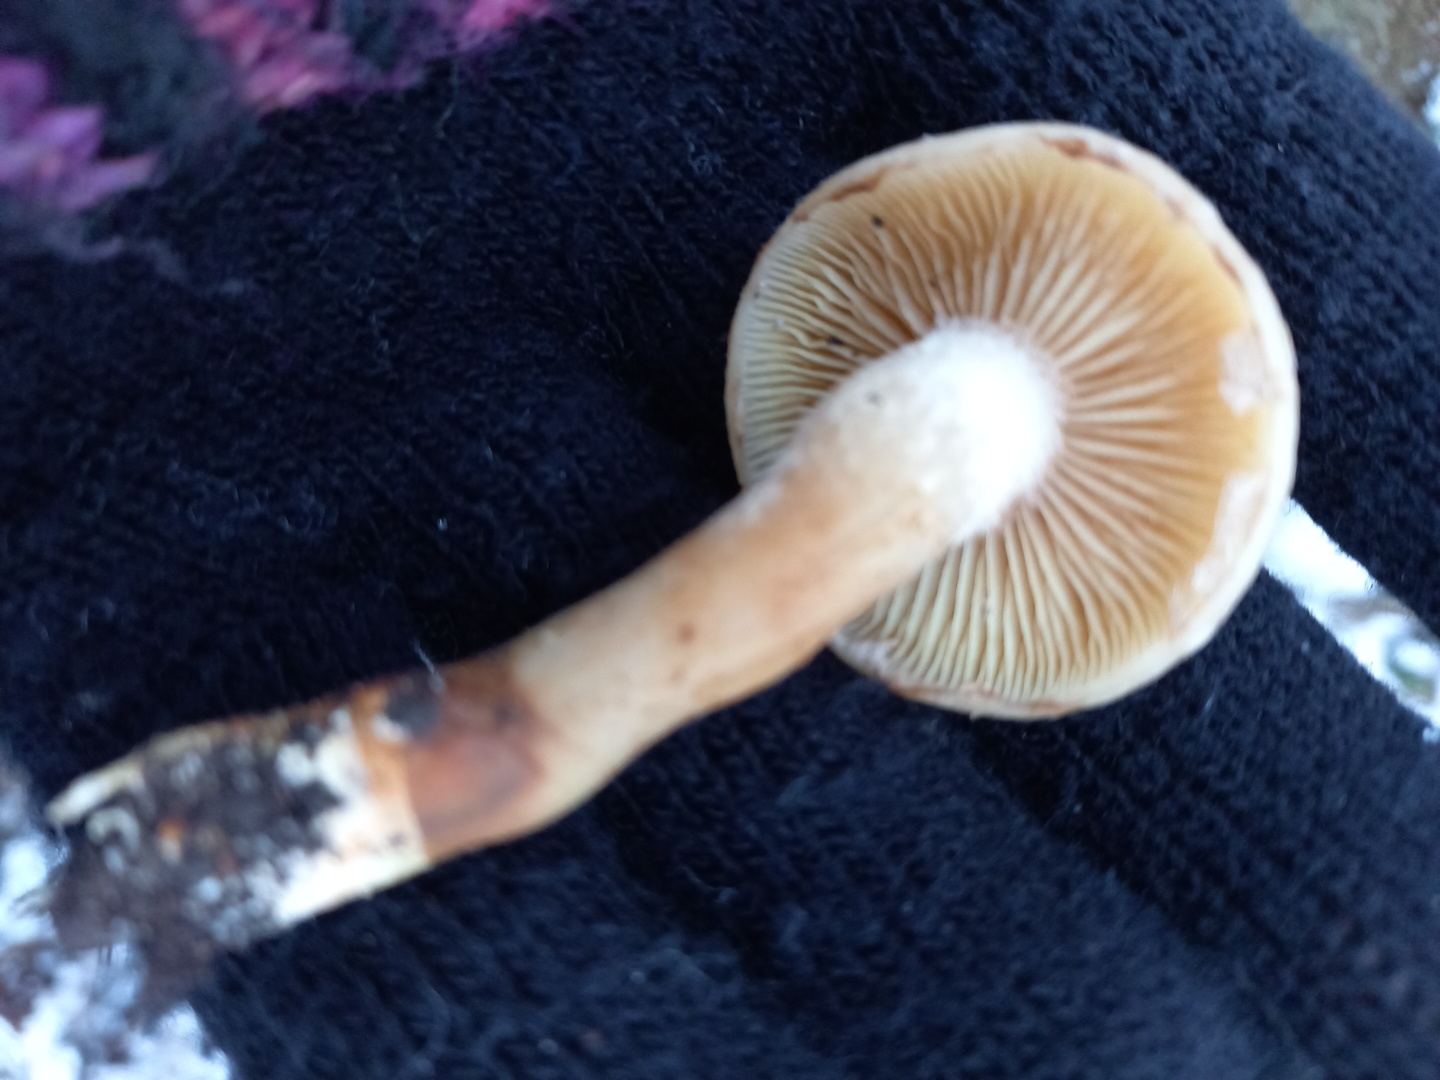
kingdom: Fungi
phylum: Basidiomycota
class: Agaricomycetes
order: Agaricales
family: Strophariaceae
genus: Pholiota
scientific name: Pholiota
